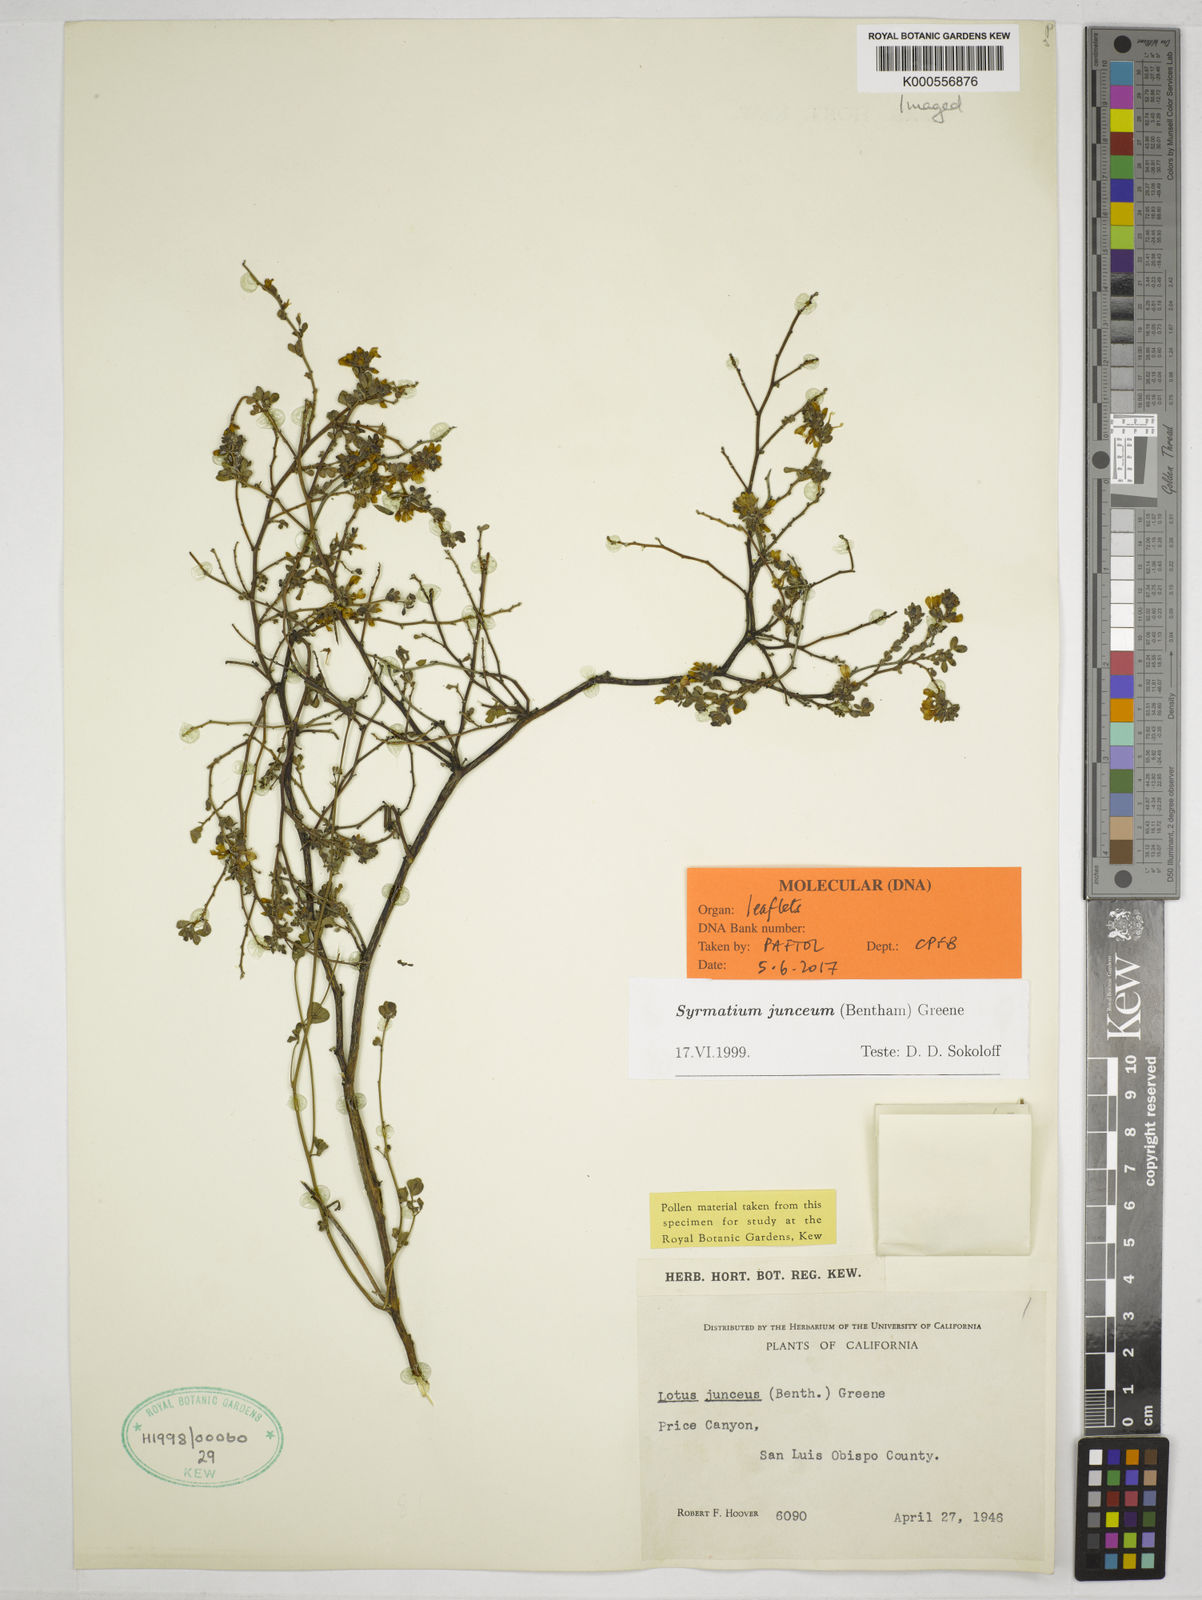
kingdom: Plantae
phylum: Tracheophyta
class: Magnoliopsida
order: Fabales
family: Fabaceae
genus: Acmispon
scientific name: Acmispon junceus
